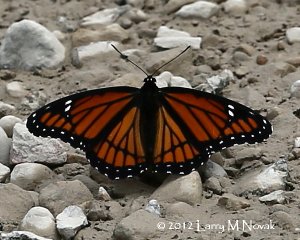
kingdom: Animalia
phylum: Arthropoda
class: Insecta
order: Lepidoptera
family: Nymphalidae
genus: Limenitis
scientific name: Limenitis archippus
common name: Viceroy
